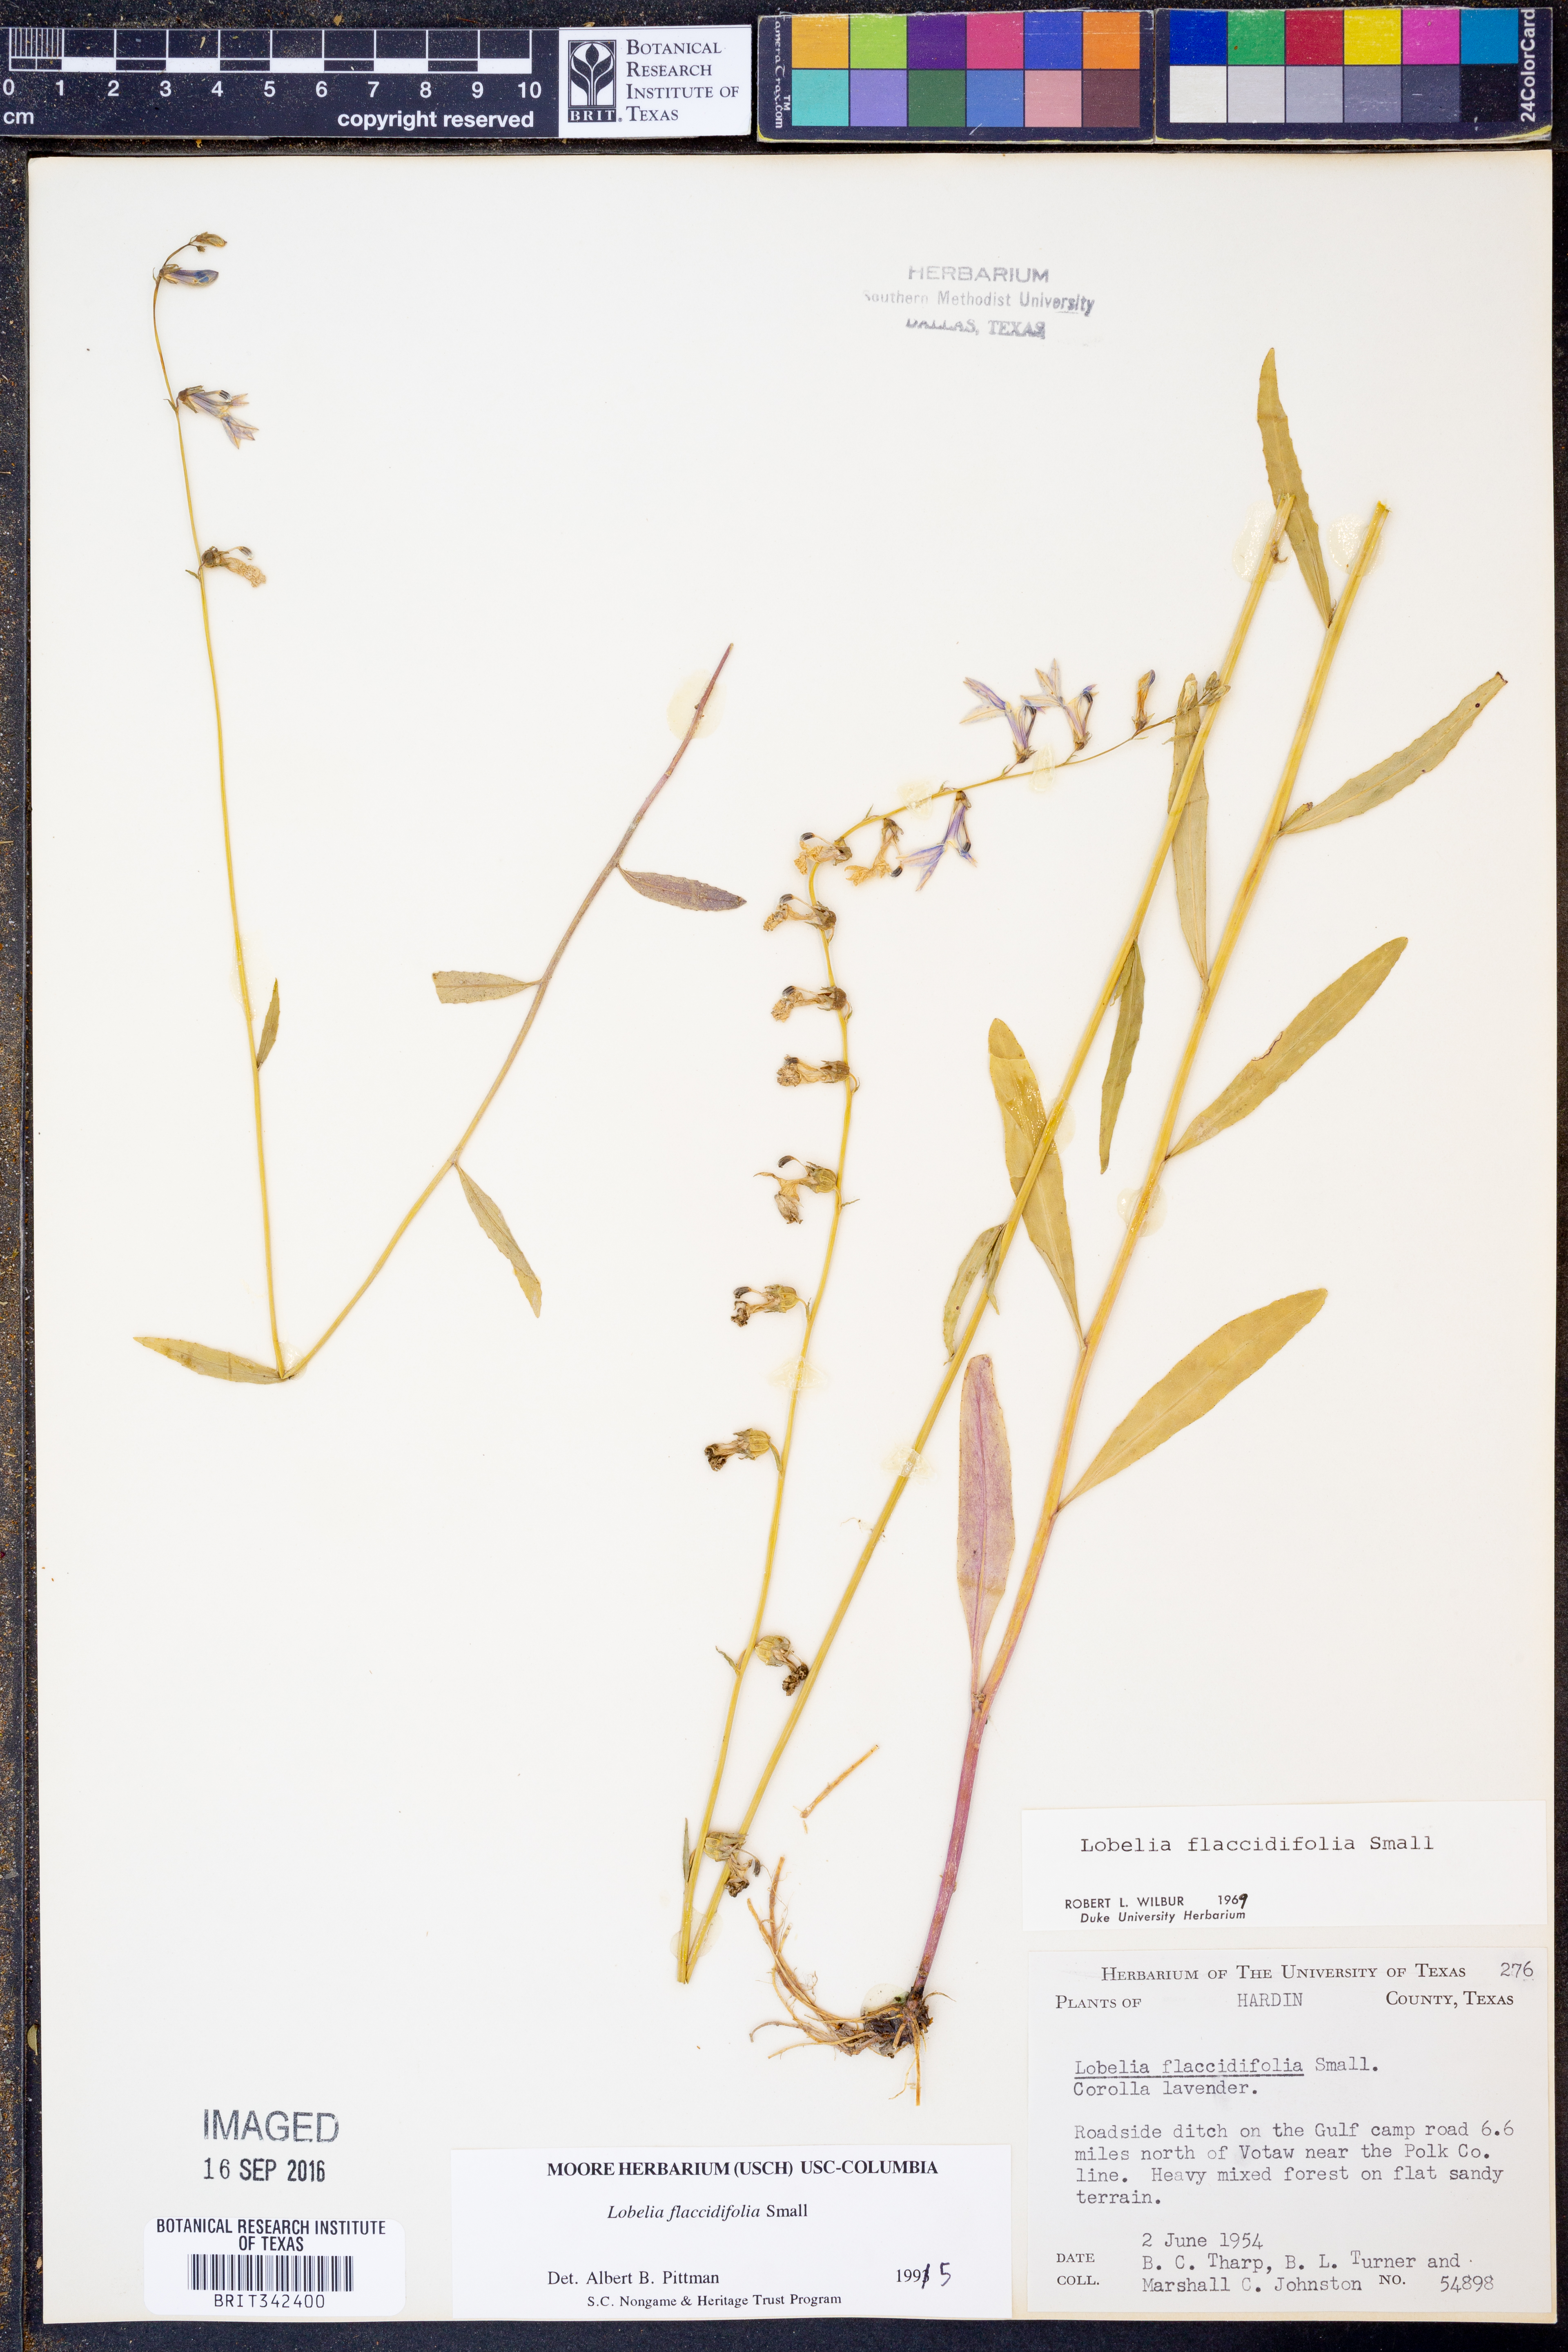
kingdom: Plantae
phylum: Tracheophyta
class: Magnoliopsida
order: Asterales
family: Campanulaceae
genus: Lobelia
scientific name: Lobelia flaccidifolia
